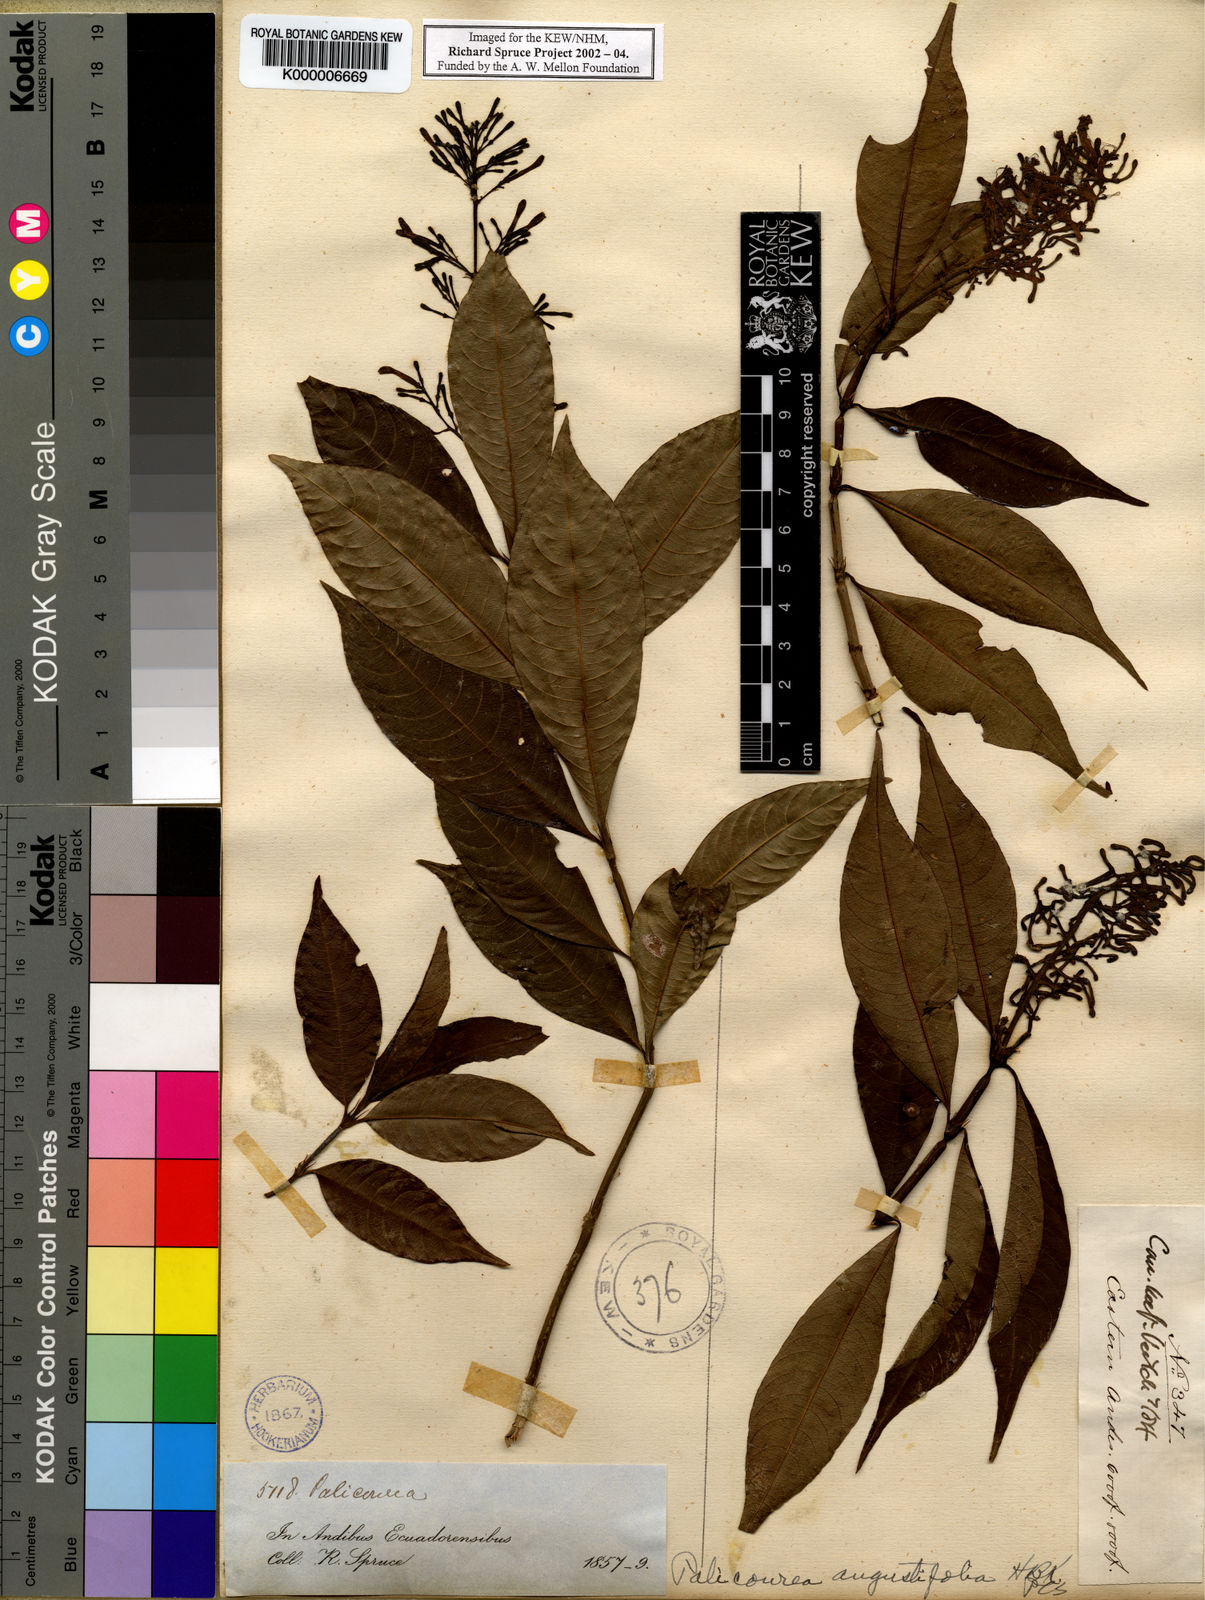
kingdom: Plantae
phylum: Tracheophyta
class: Magnoliopsida
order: Gentianales
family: Rubiaceae
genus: Palicourea
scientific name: Palicourea
